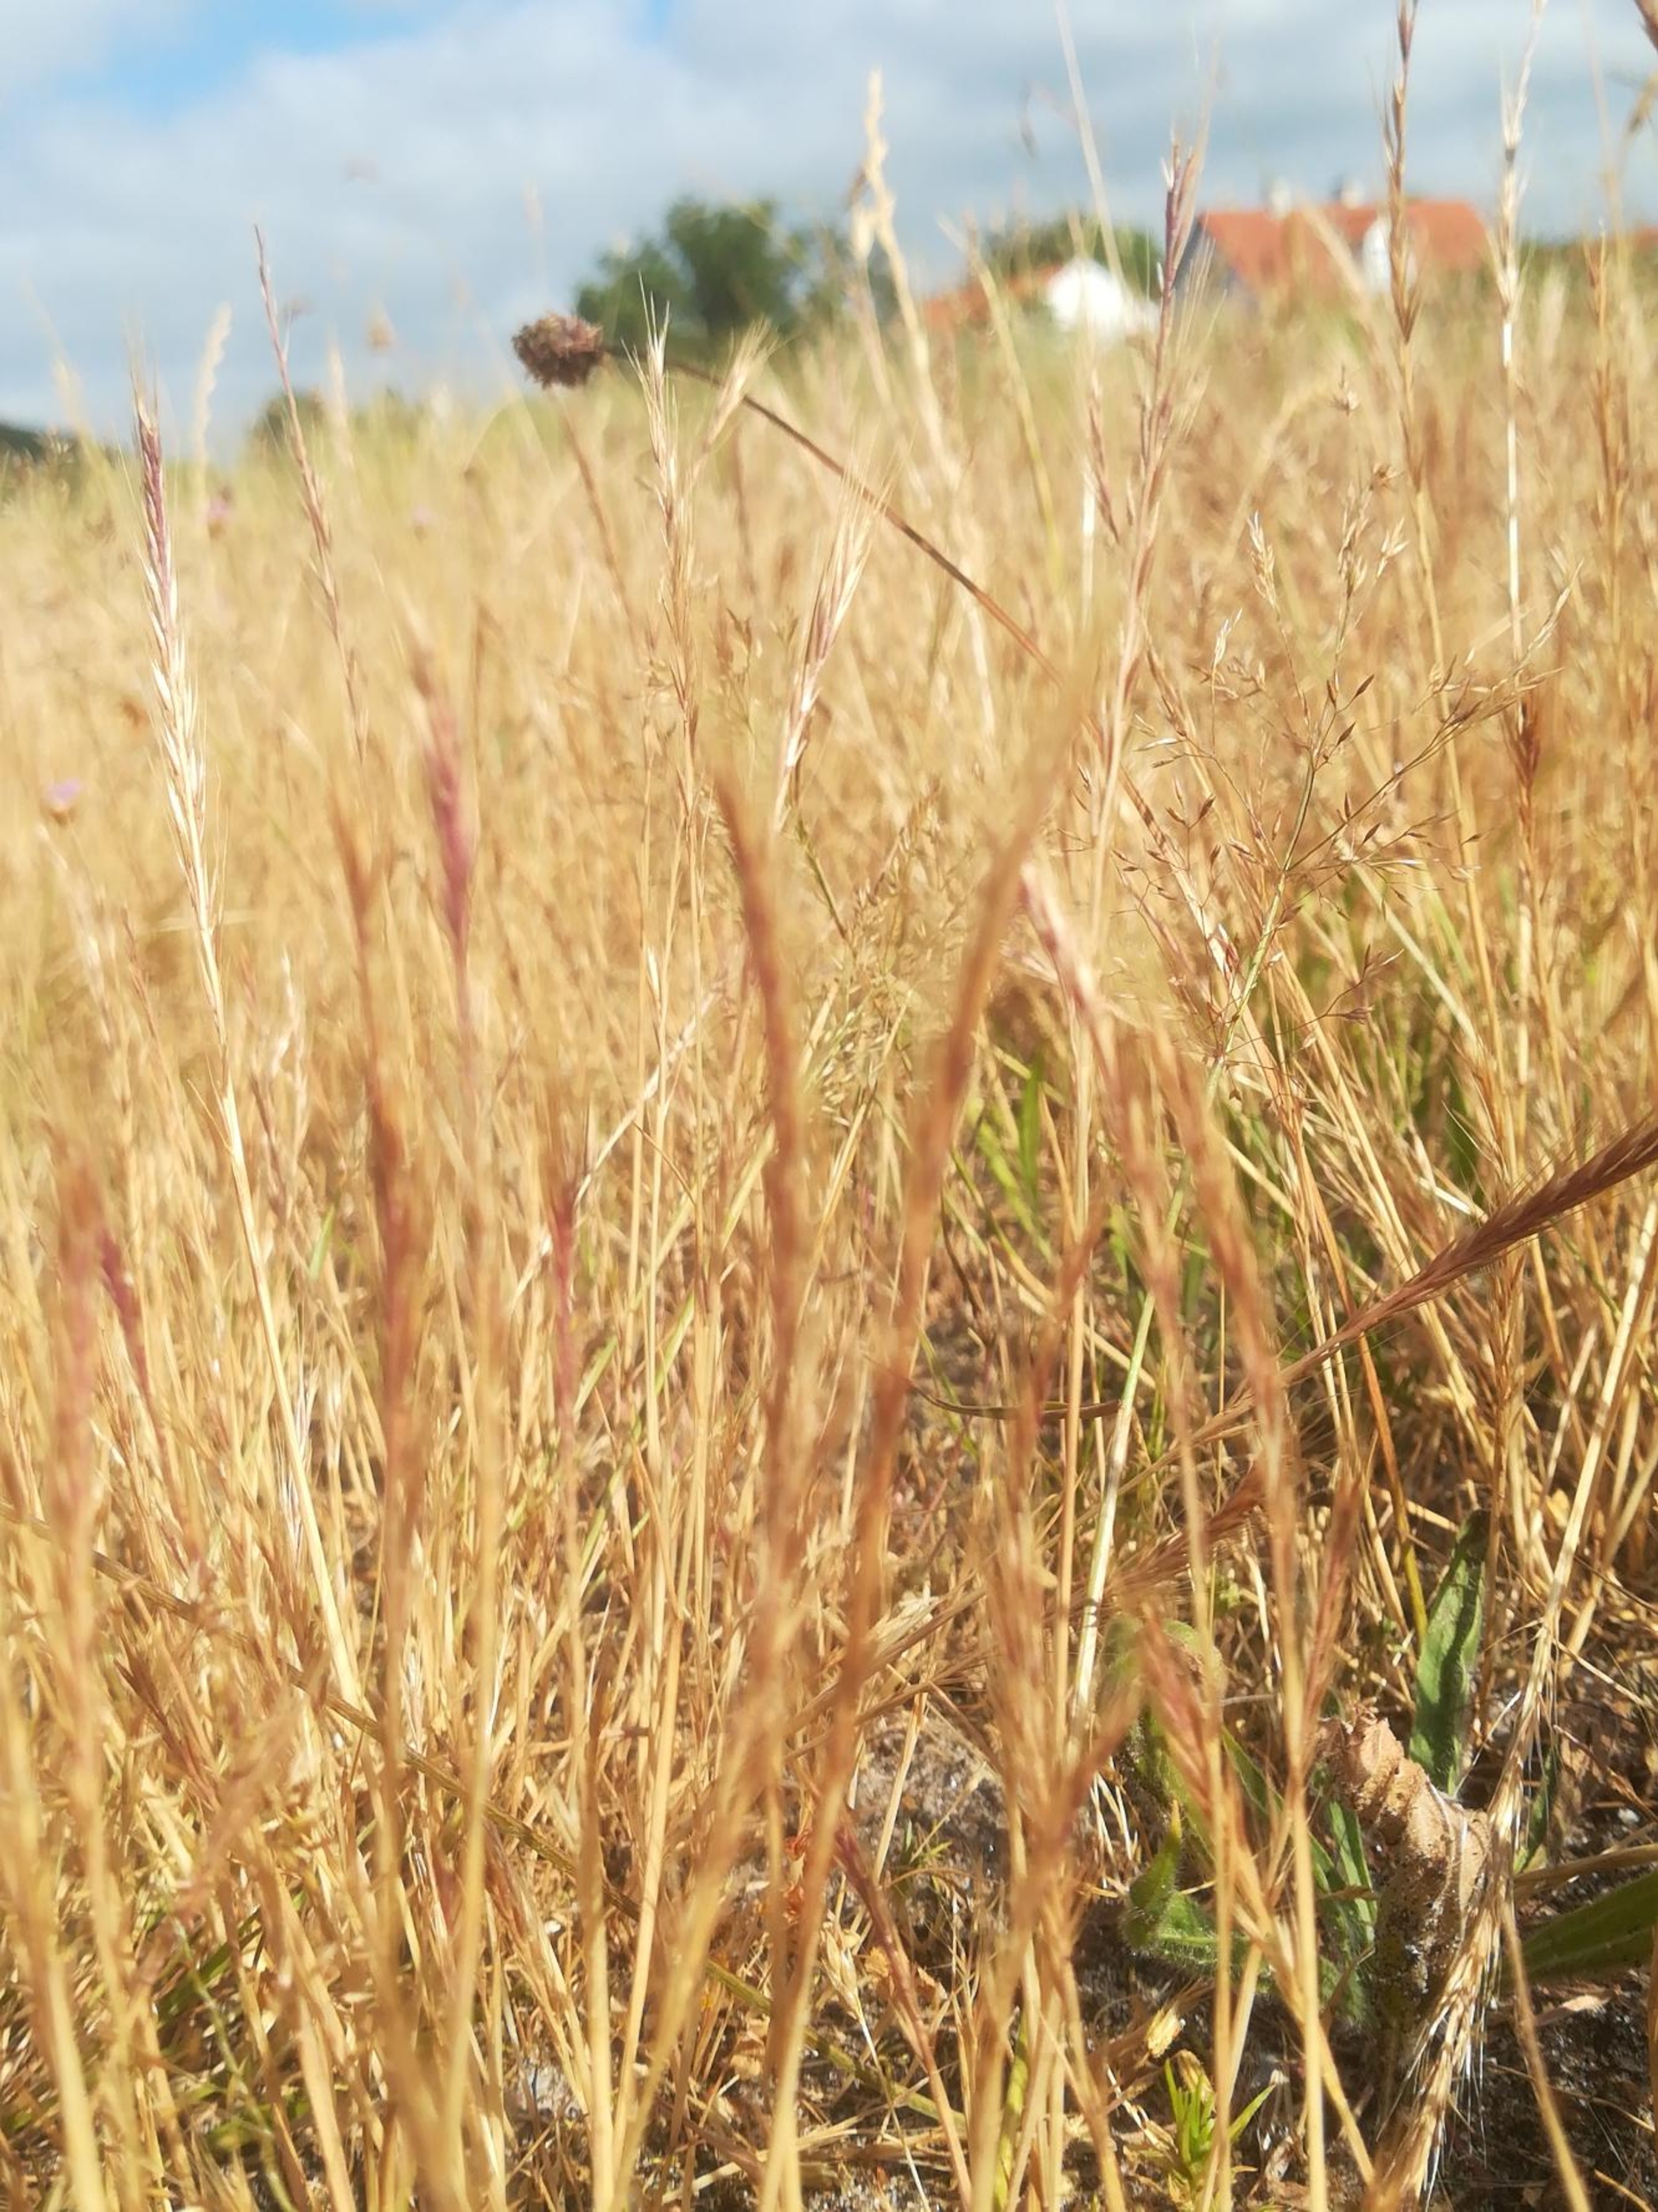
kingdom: Plantae
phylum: Tracheophyta
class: Liliopsida
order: Poales
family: Poaceae
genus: Festuca
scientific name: Festuca bromoides
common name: Langstakket væselhale
